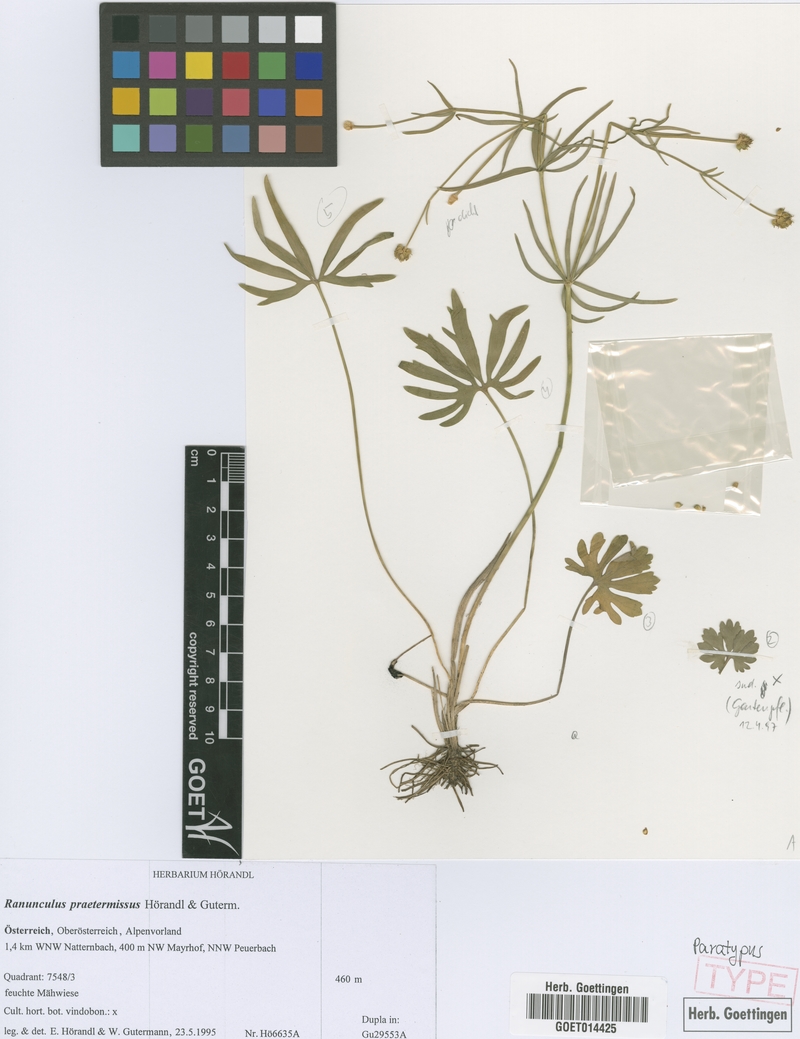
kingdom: Plantae
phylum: Tracheophyta
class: Magnoliopsida
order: Ranunculales
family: Ranunculaceae
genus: Ranunculus
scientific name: Ranunculus praetermissus
